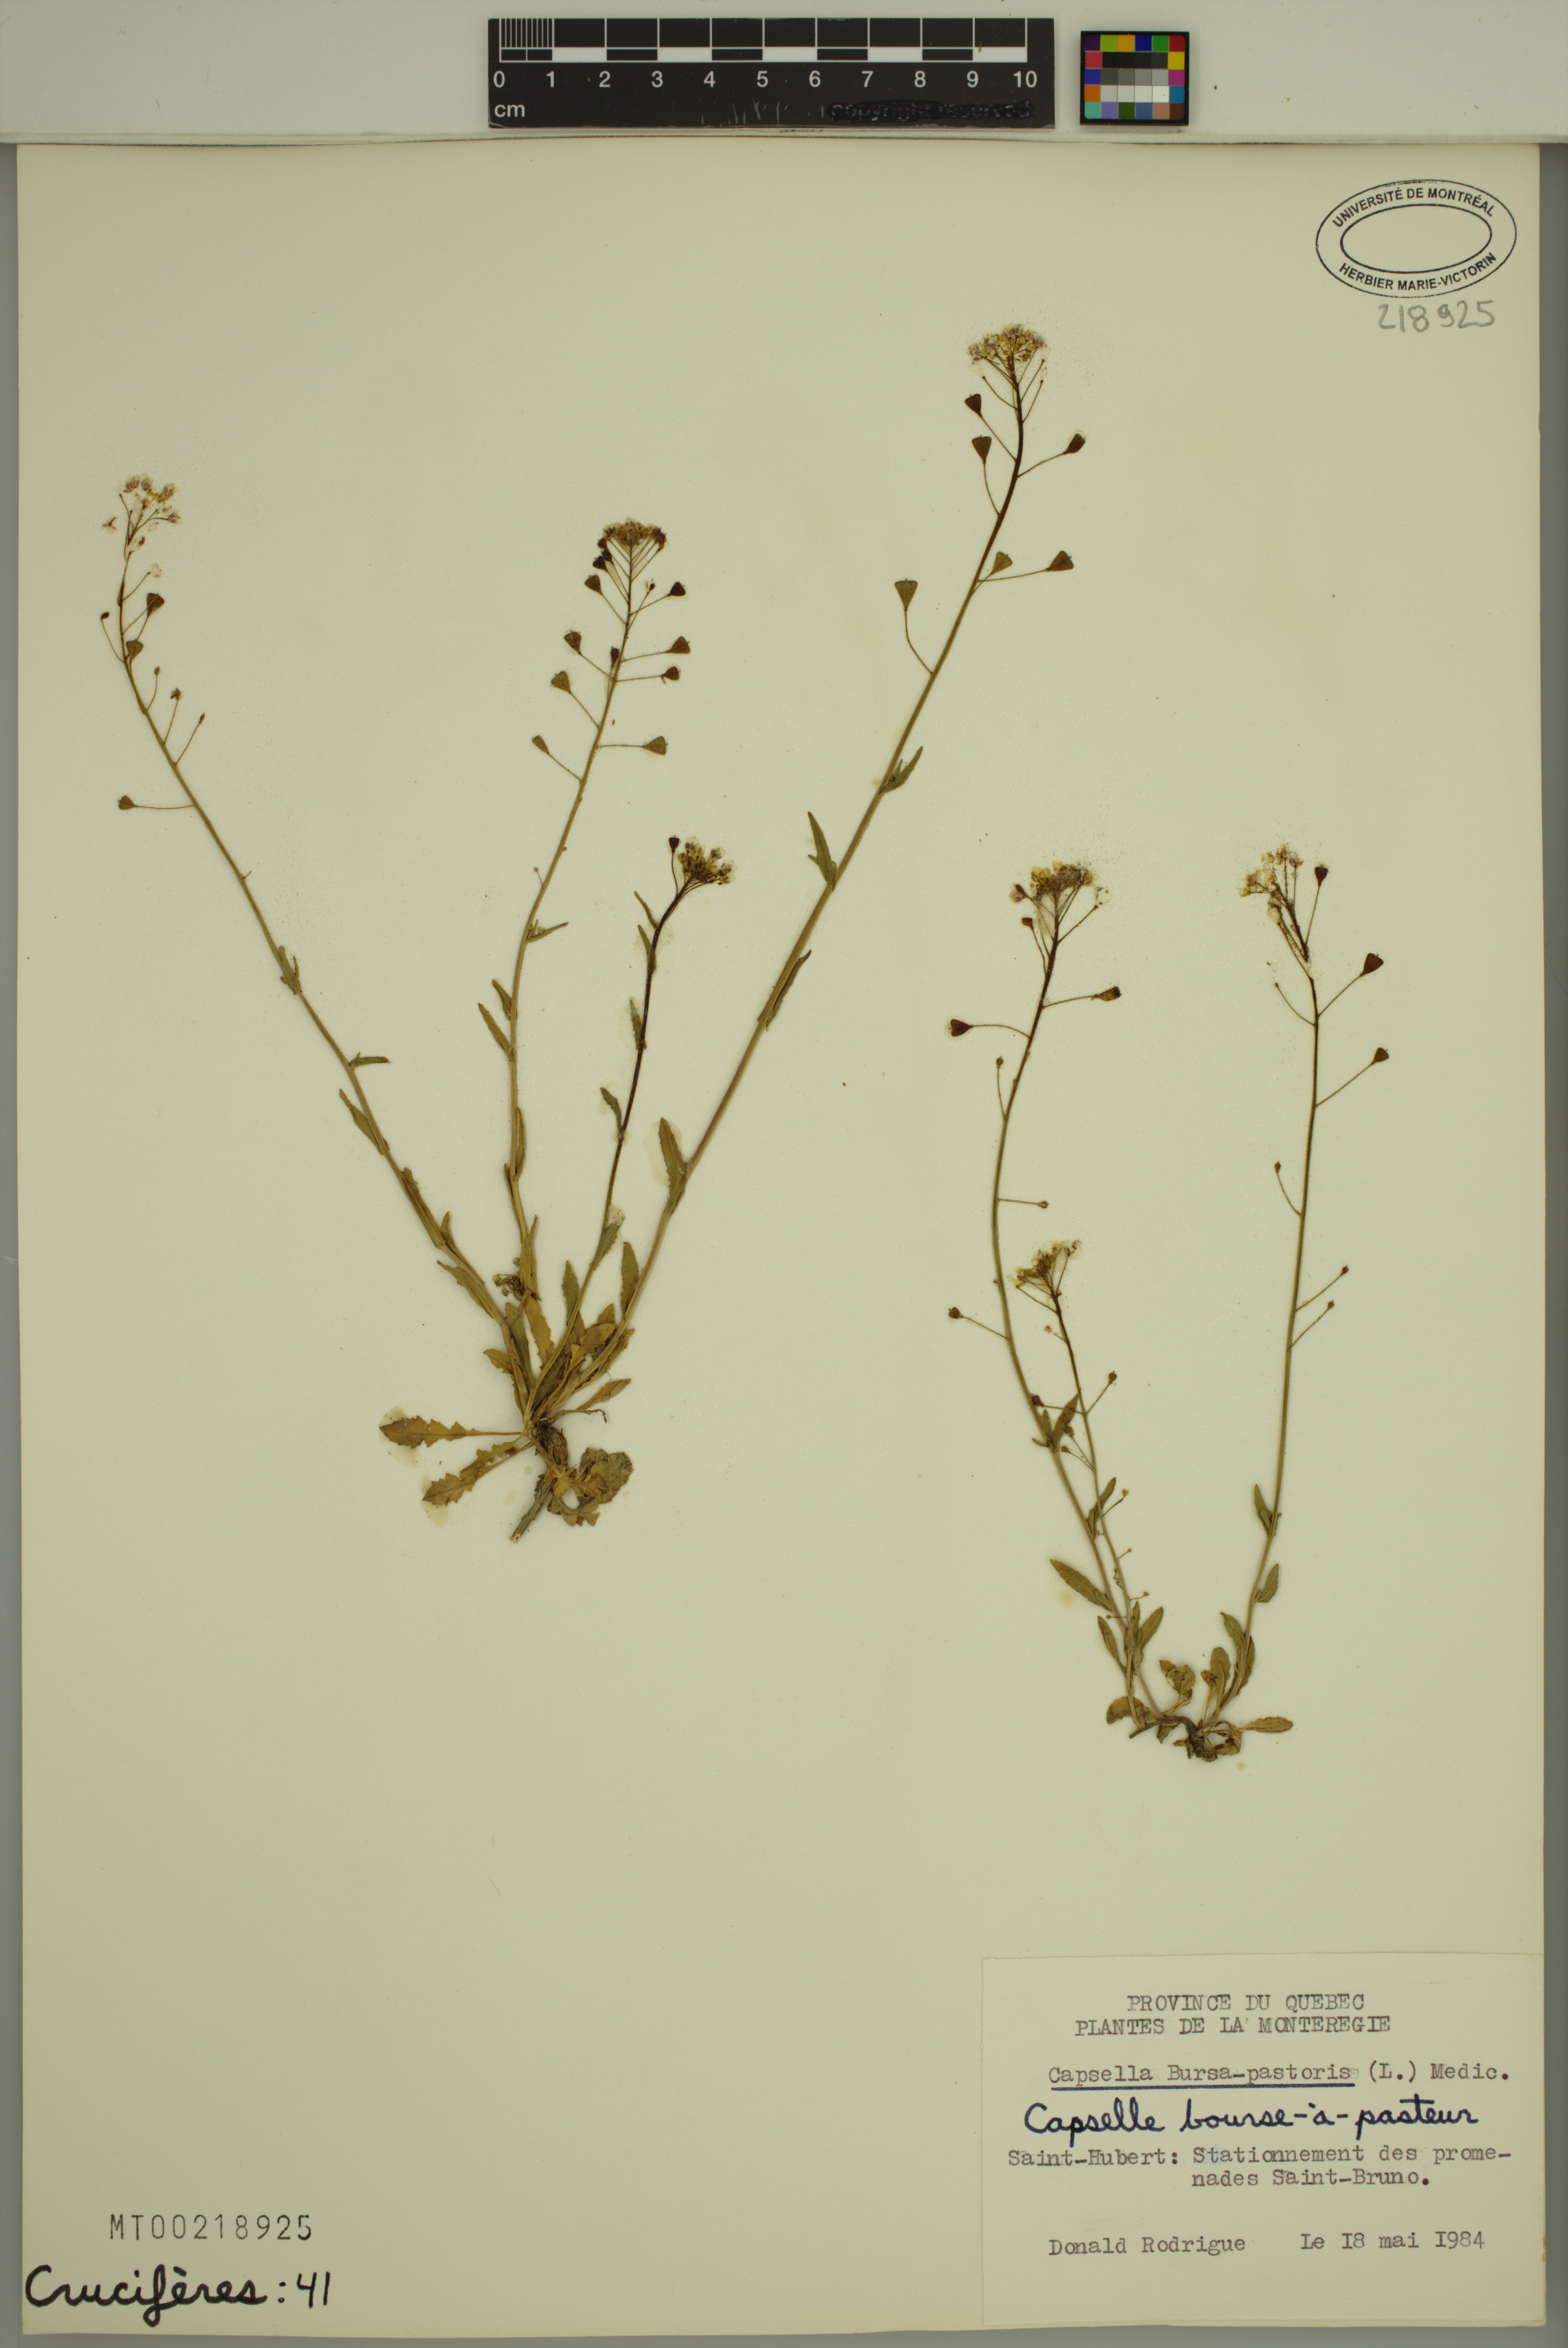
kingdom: Plantae
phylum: Tracheophyta
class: Magnoliopsida
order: Brassicales
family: Brassicaceae
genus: Capsella
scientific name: Capsella bursa-pastoris
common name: Shepherd's purse
